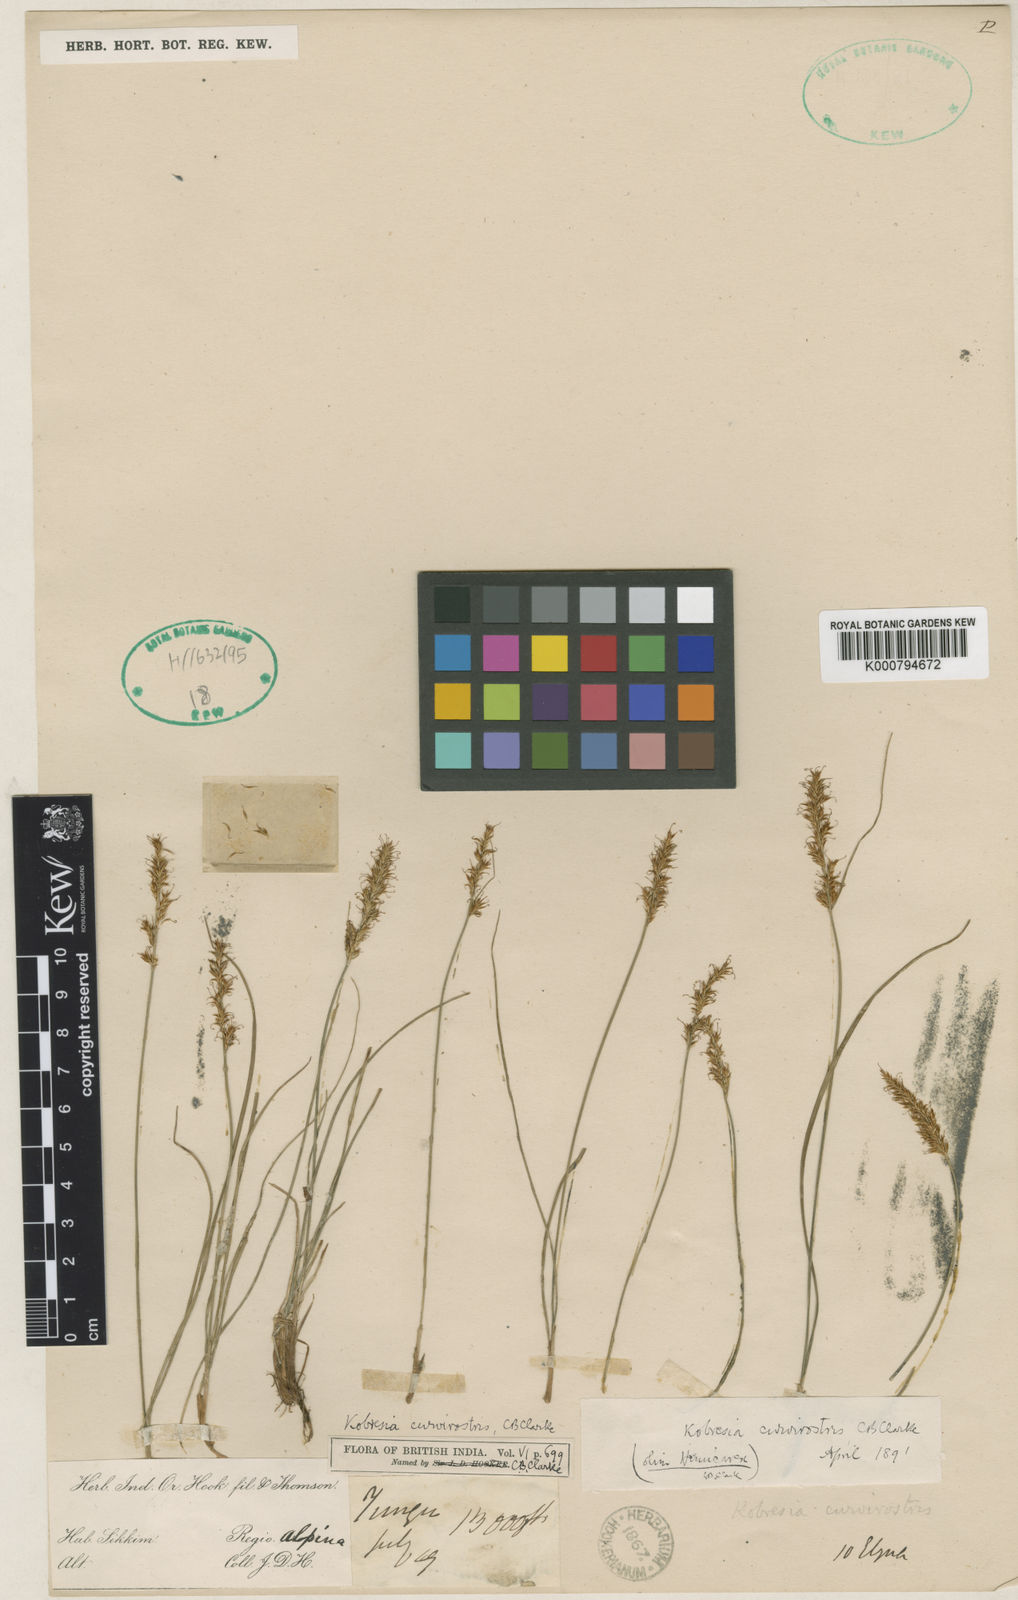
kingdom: Plantae
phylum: Tracheophyta
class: Liliopsida
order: Poales
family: Cyperaceae
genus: Carex
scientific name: Carex esenbeckii
